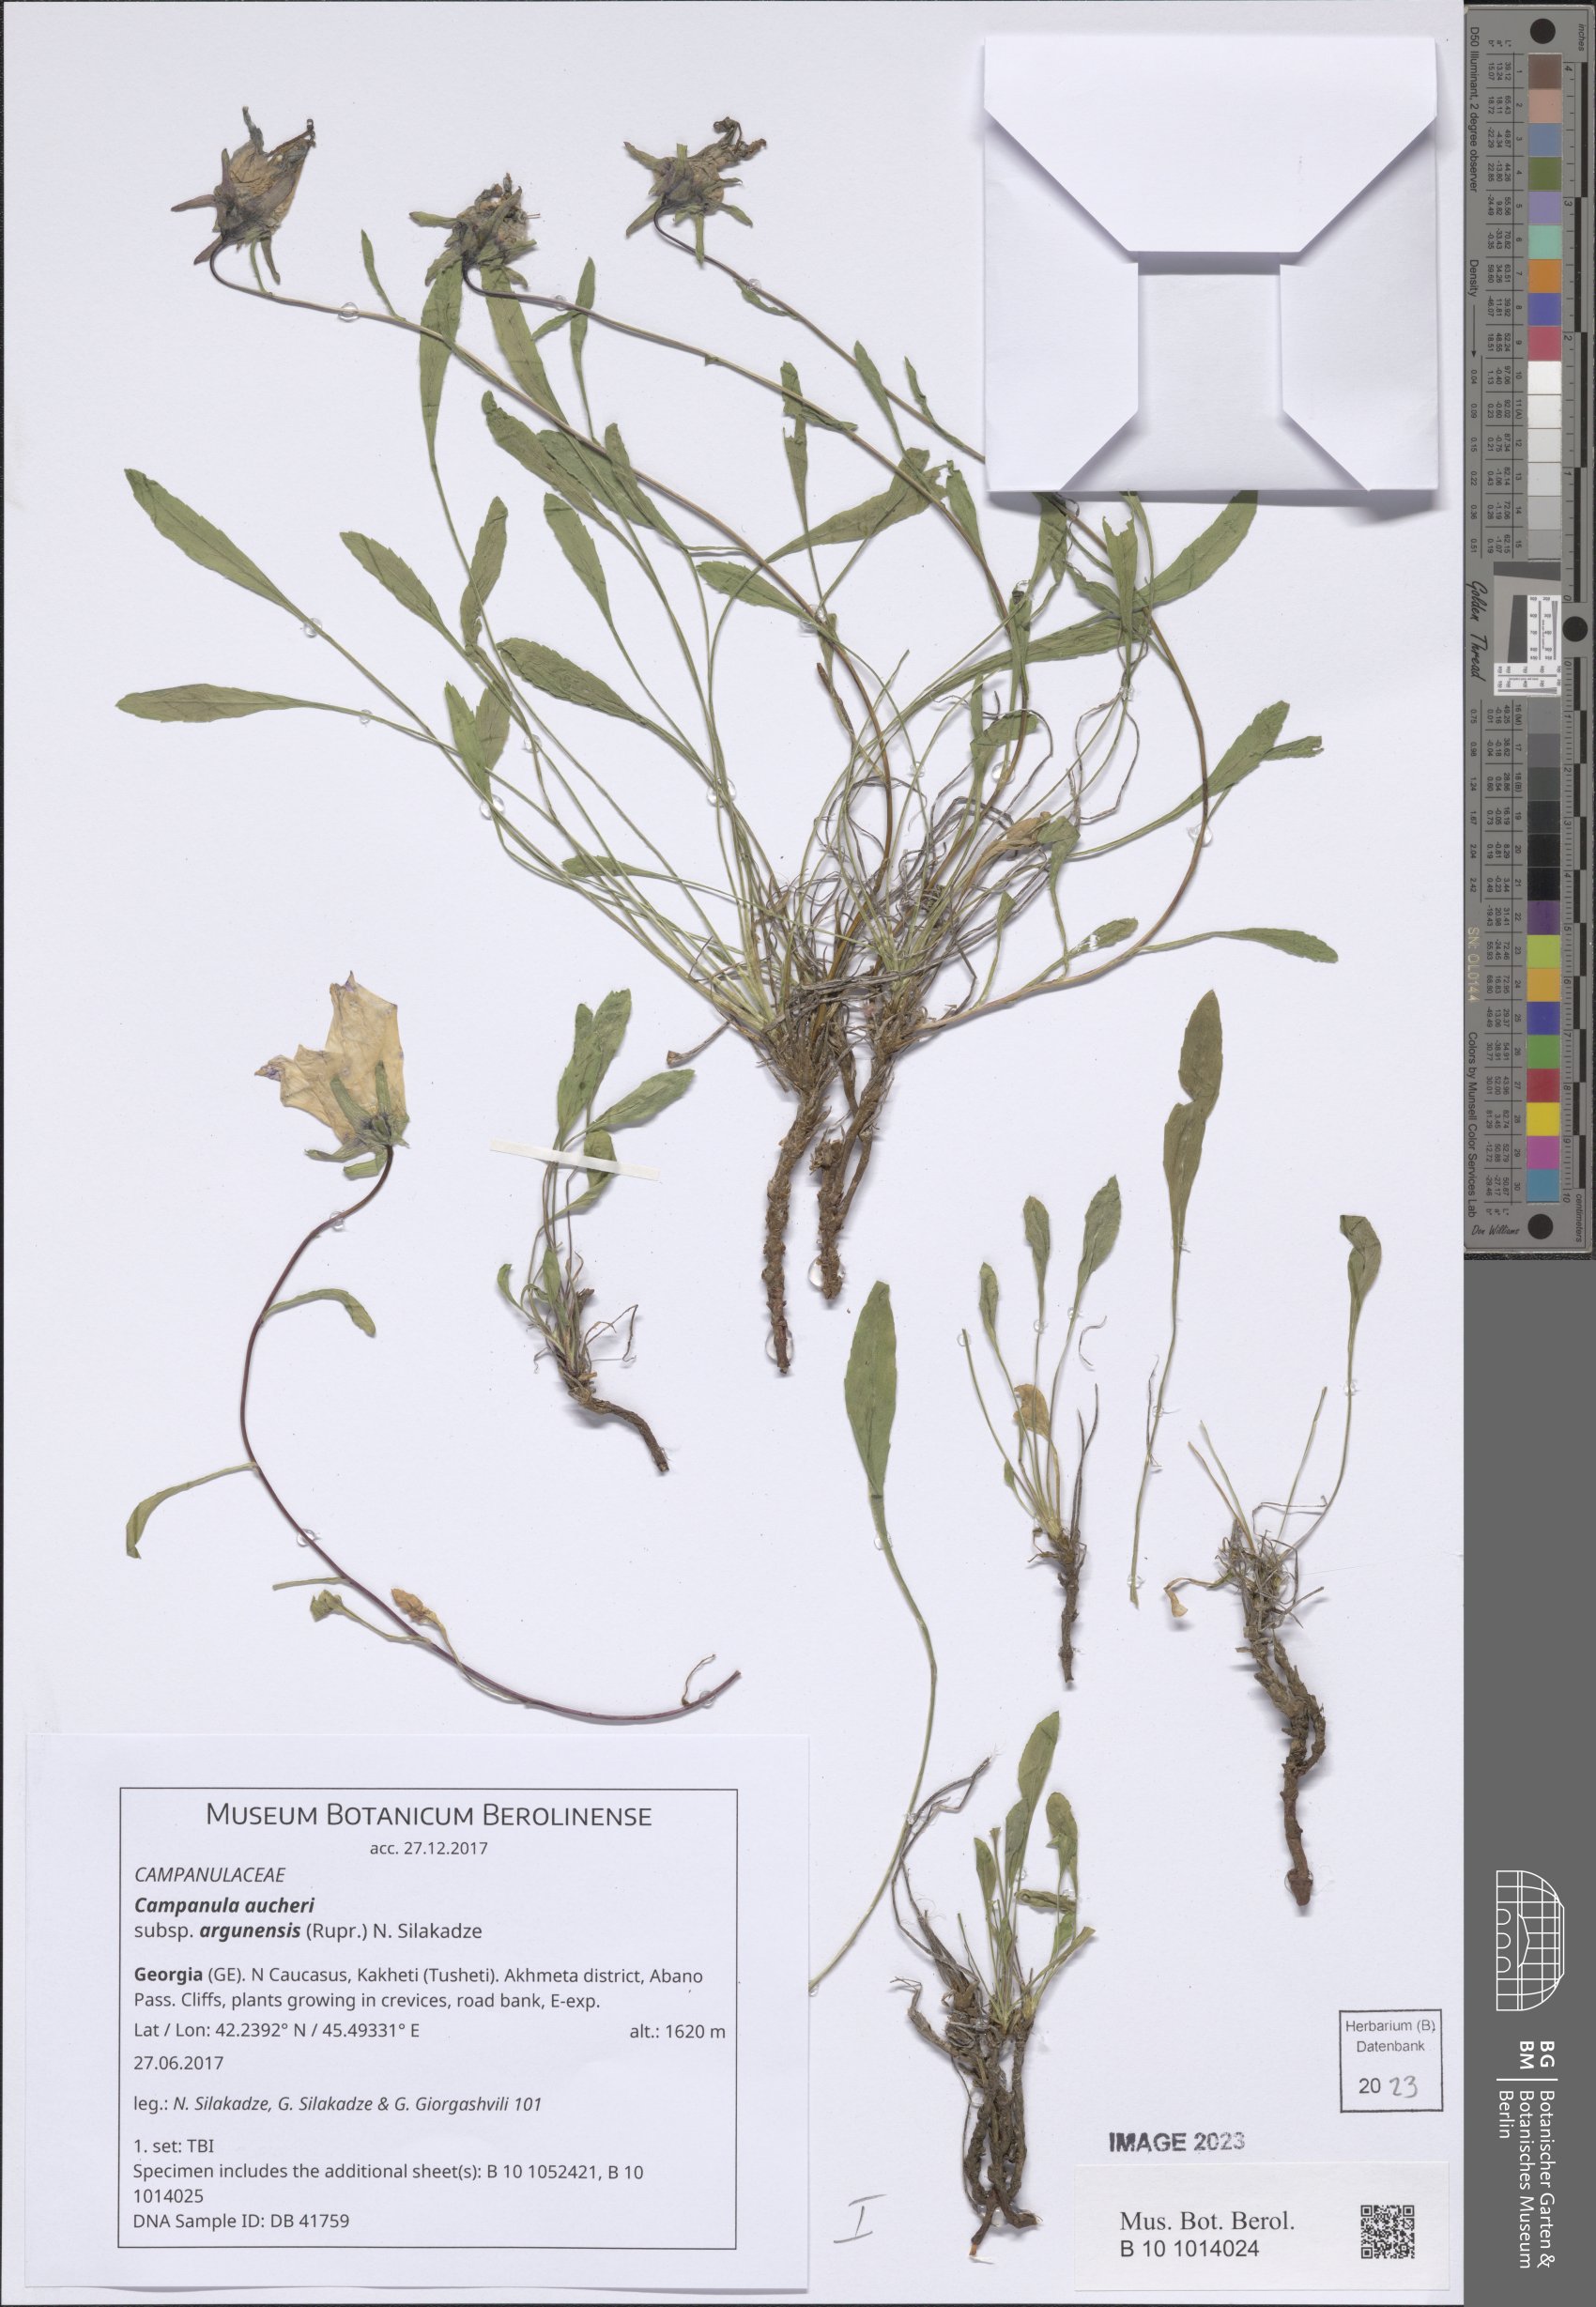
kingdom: Plantae
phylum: Tracheophyta
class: Magnoliopsida
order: Asterales
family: Campanulaceae
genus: Campanula
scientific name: Campanula saxifraga
